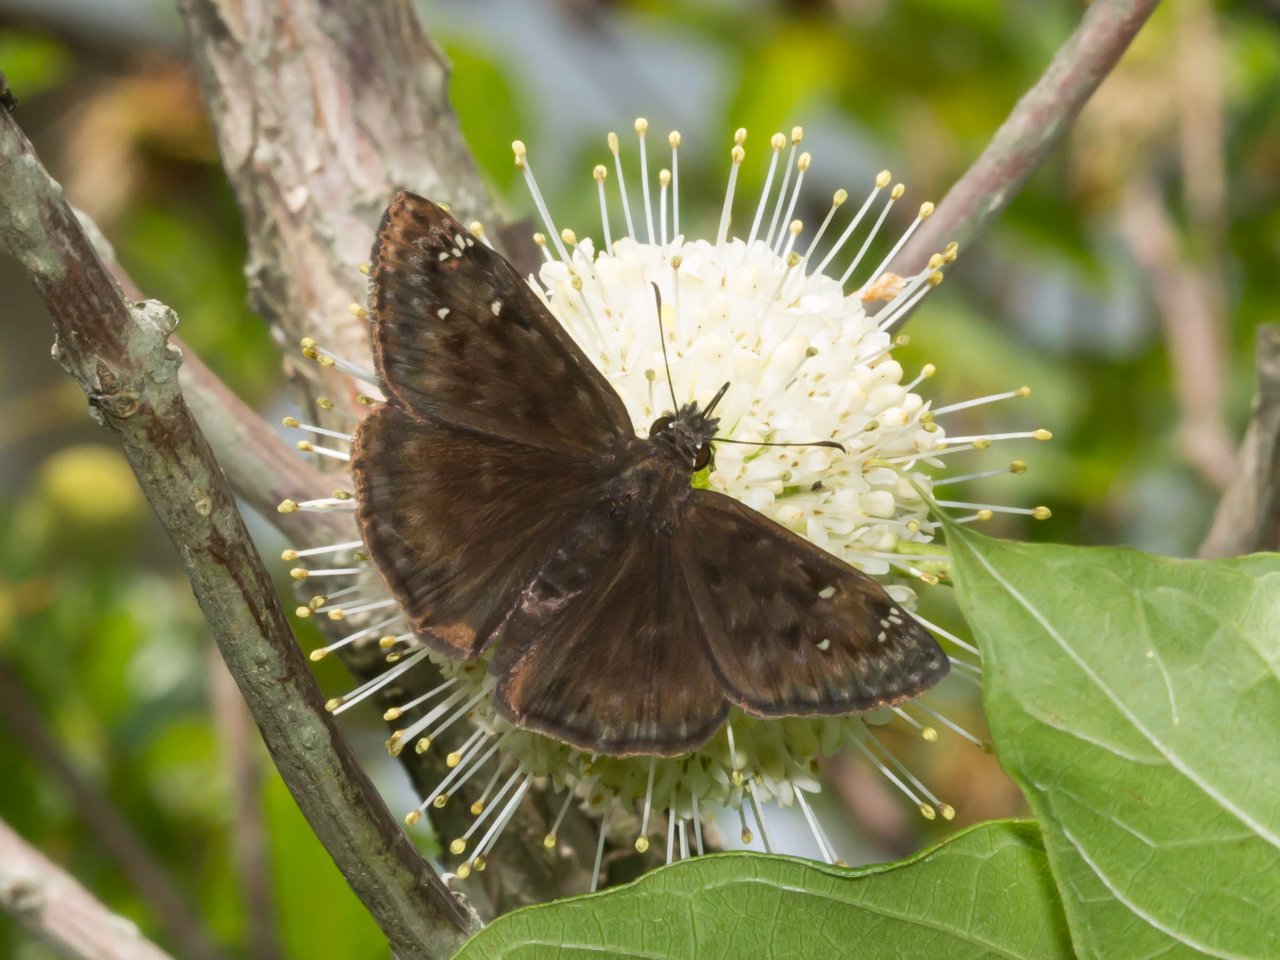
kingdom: Animalia
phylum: Arthropoda
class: Insecta
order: Lepidoptera
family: Hesperiidae
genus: Gesta
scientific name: Gesta
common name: Horace's Duskywing
